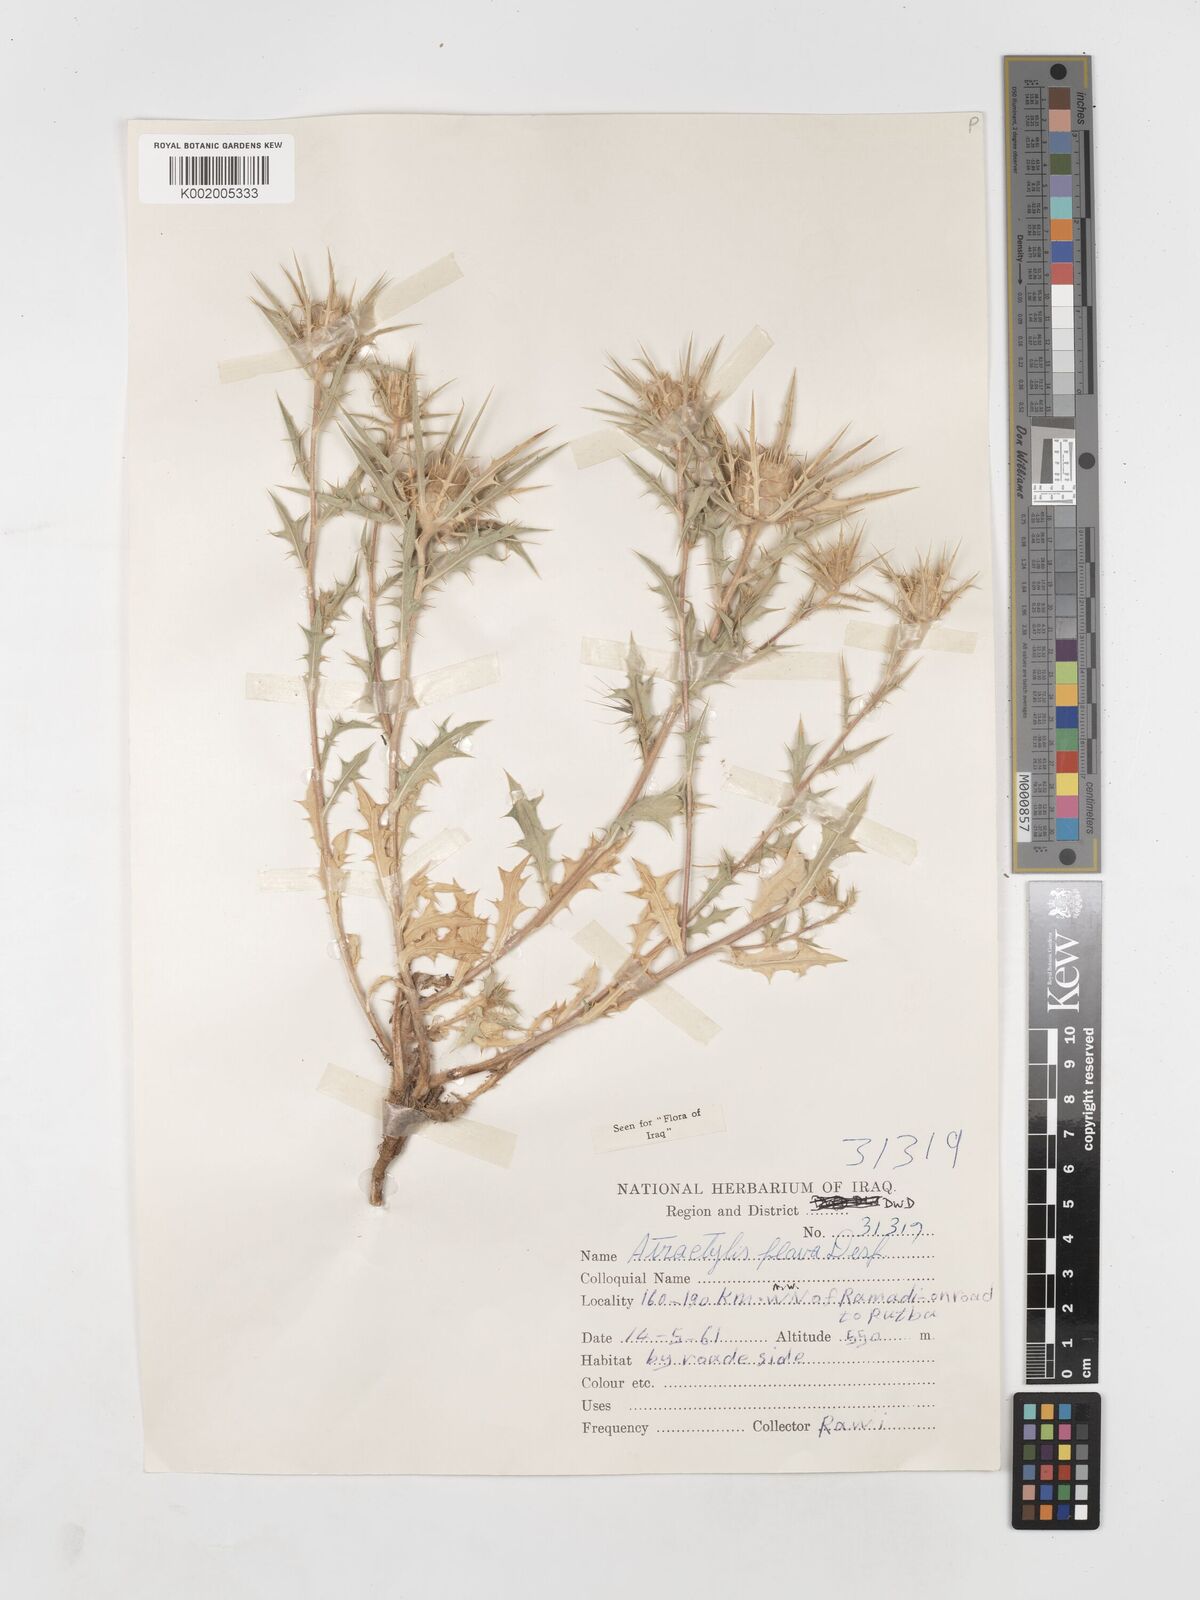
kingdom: Plantae
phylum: Tracheophyta
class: Magnoliopsida
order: Asterales
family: Asteraceae
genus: Atractylis
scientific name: Atractylis carduus
